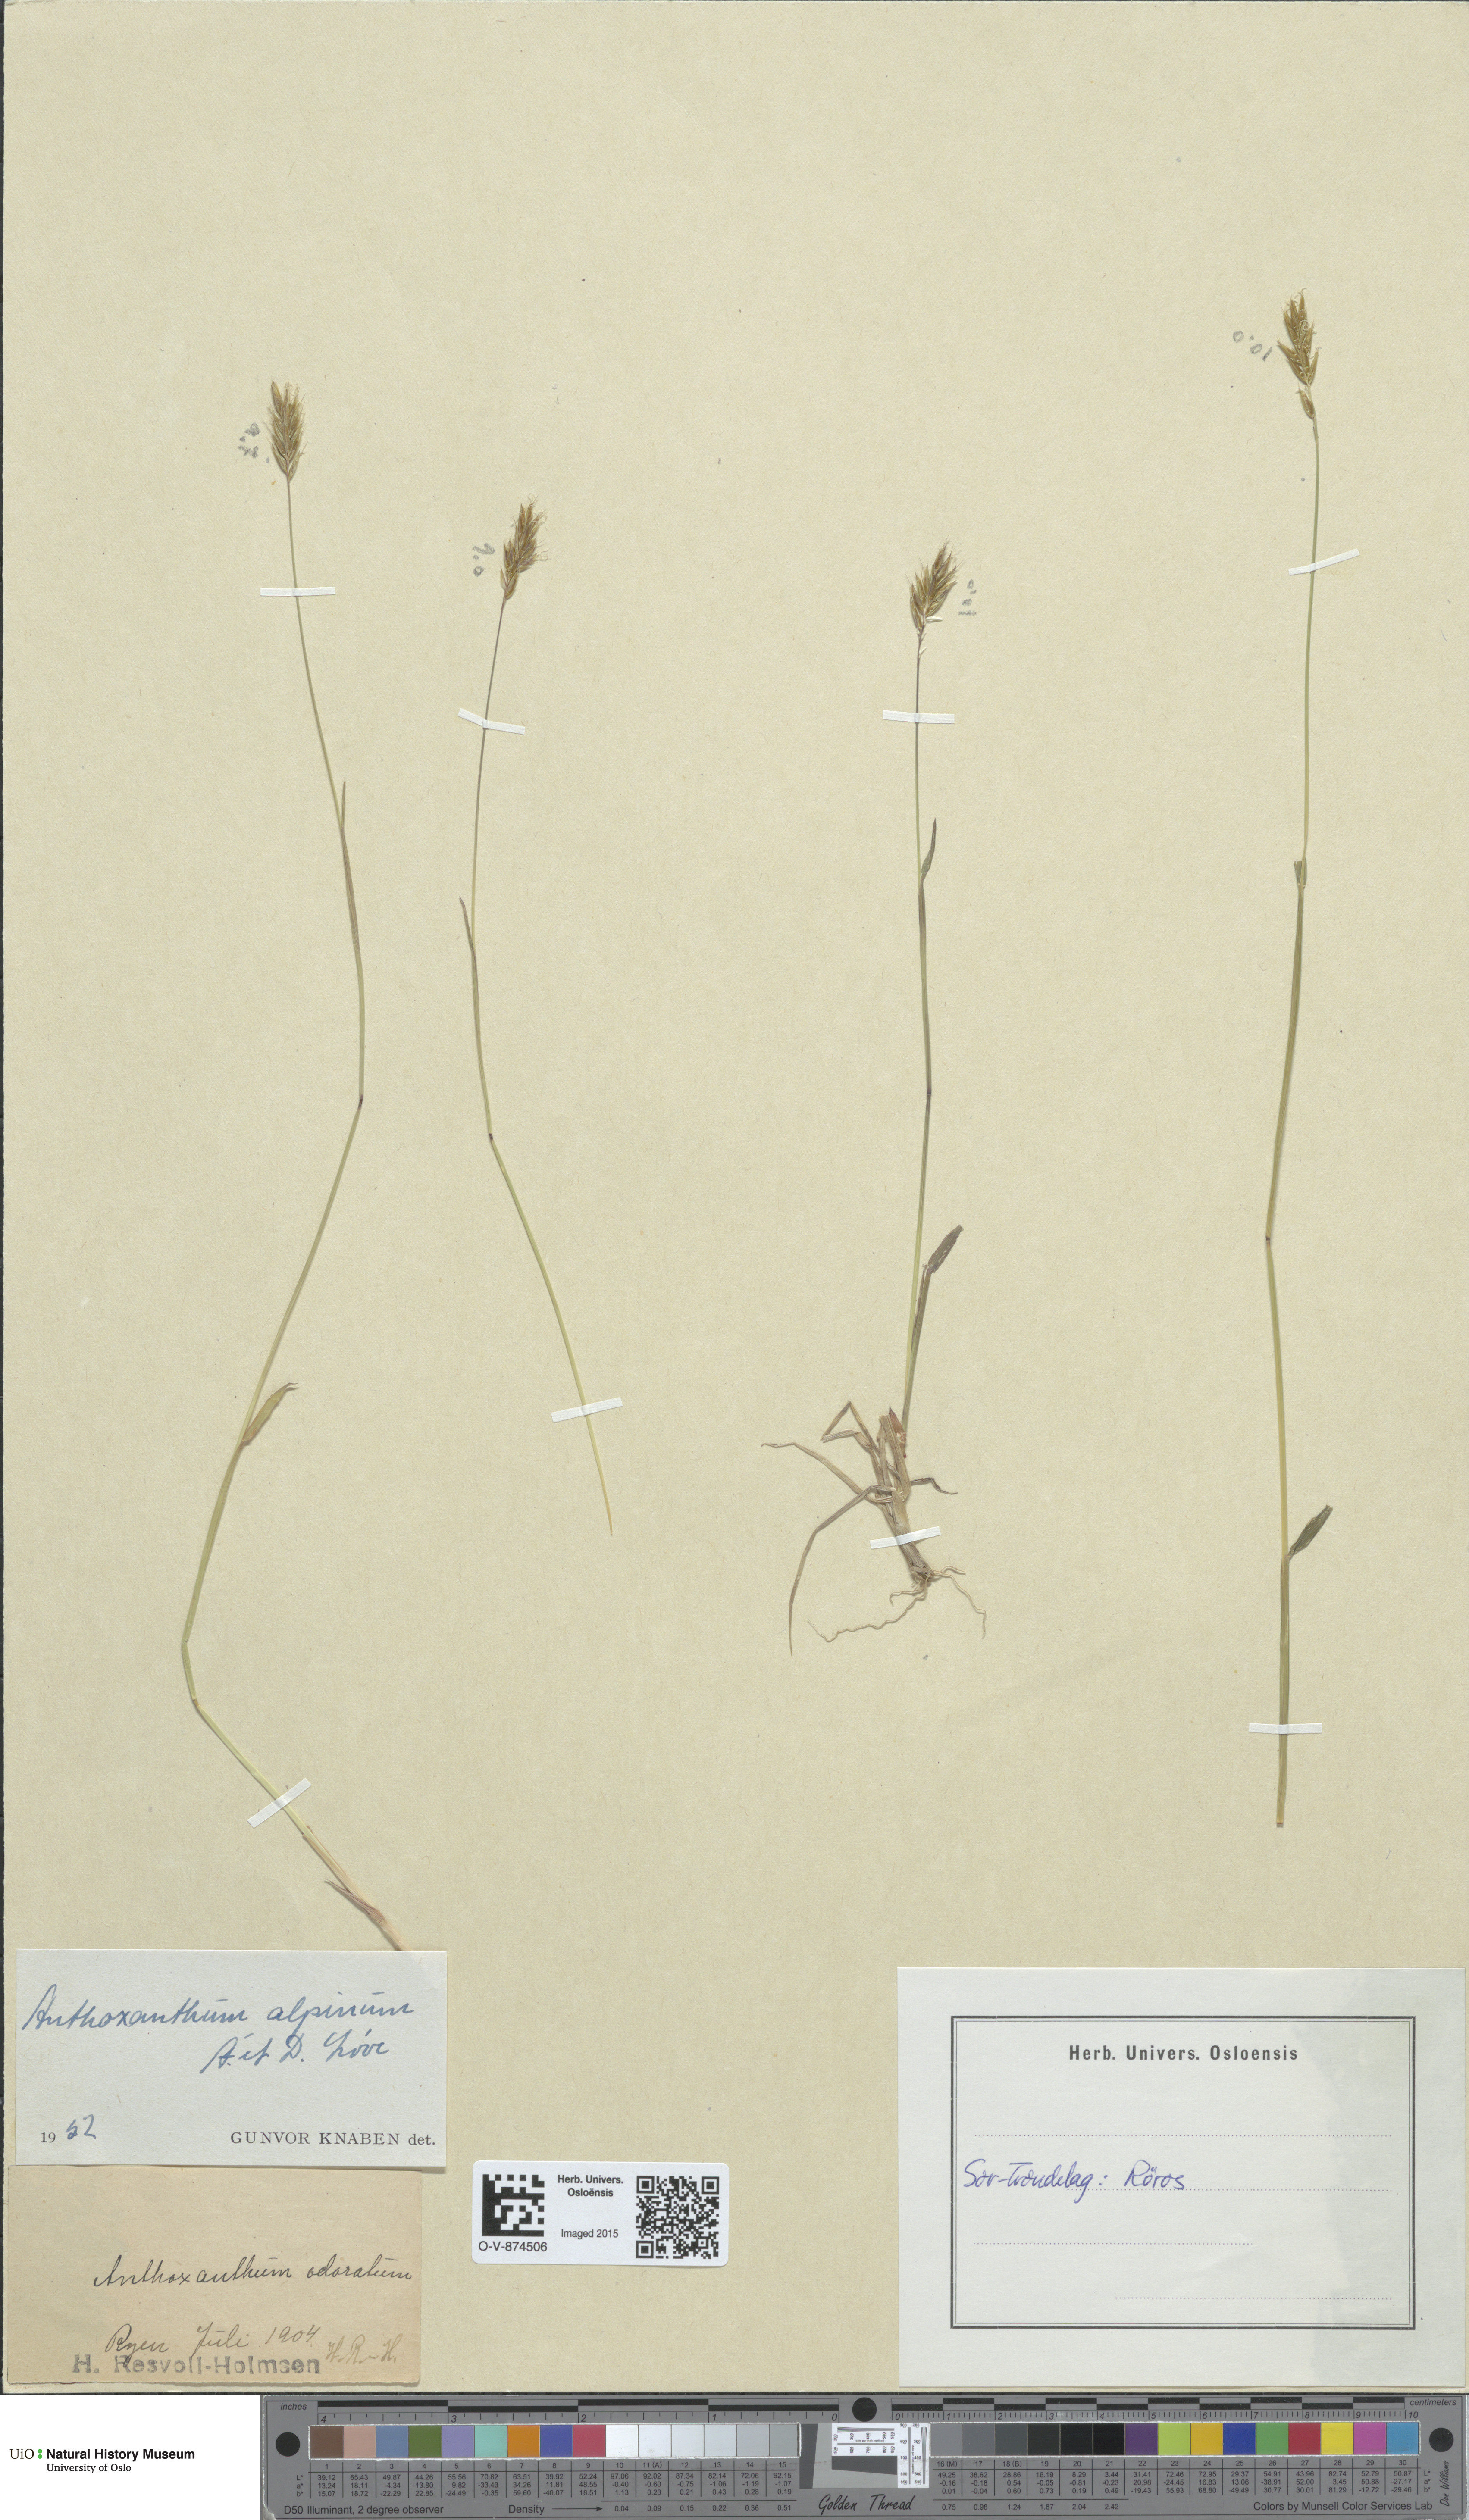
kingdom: Plantae
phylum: Tracheophyta
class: Liliopsida
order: Poales
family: Poaceae
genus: Anthoxanthum
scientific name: Anthoxanthum nipponicum
